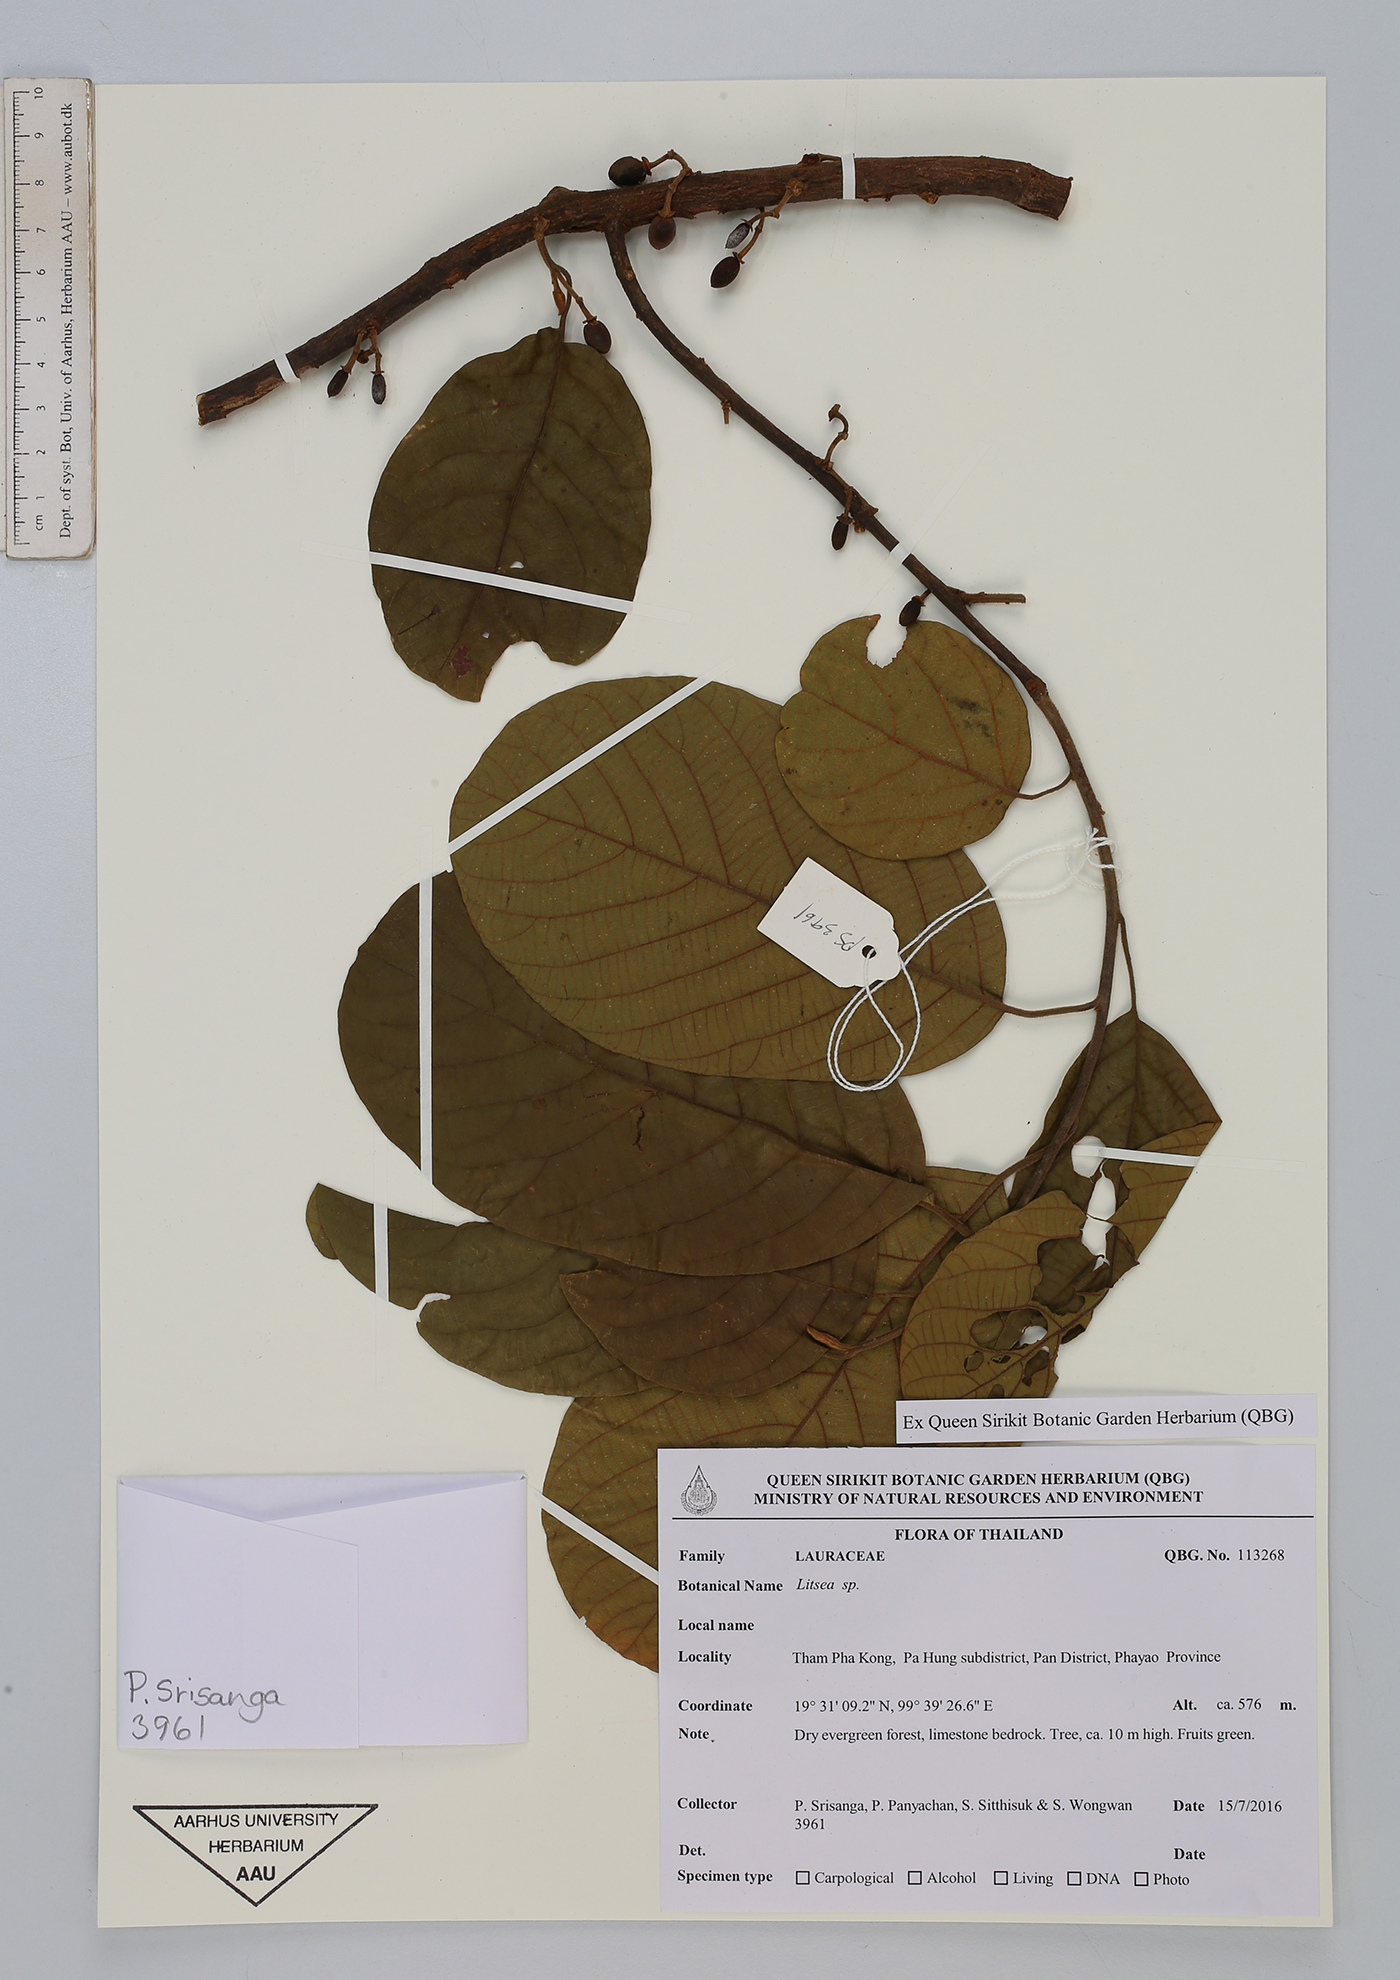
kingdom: Plantae
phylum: Tracheophyta
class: Magnoliopsida
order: Laurales
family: Lauraceae
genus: Litsea
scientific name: Litsea
